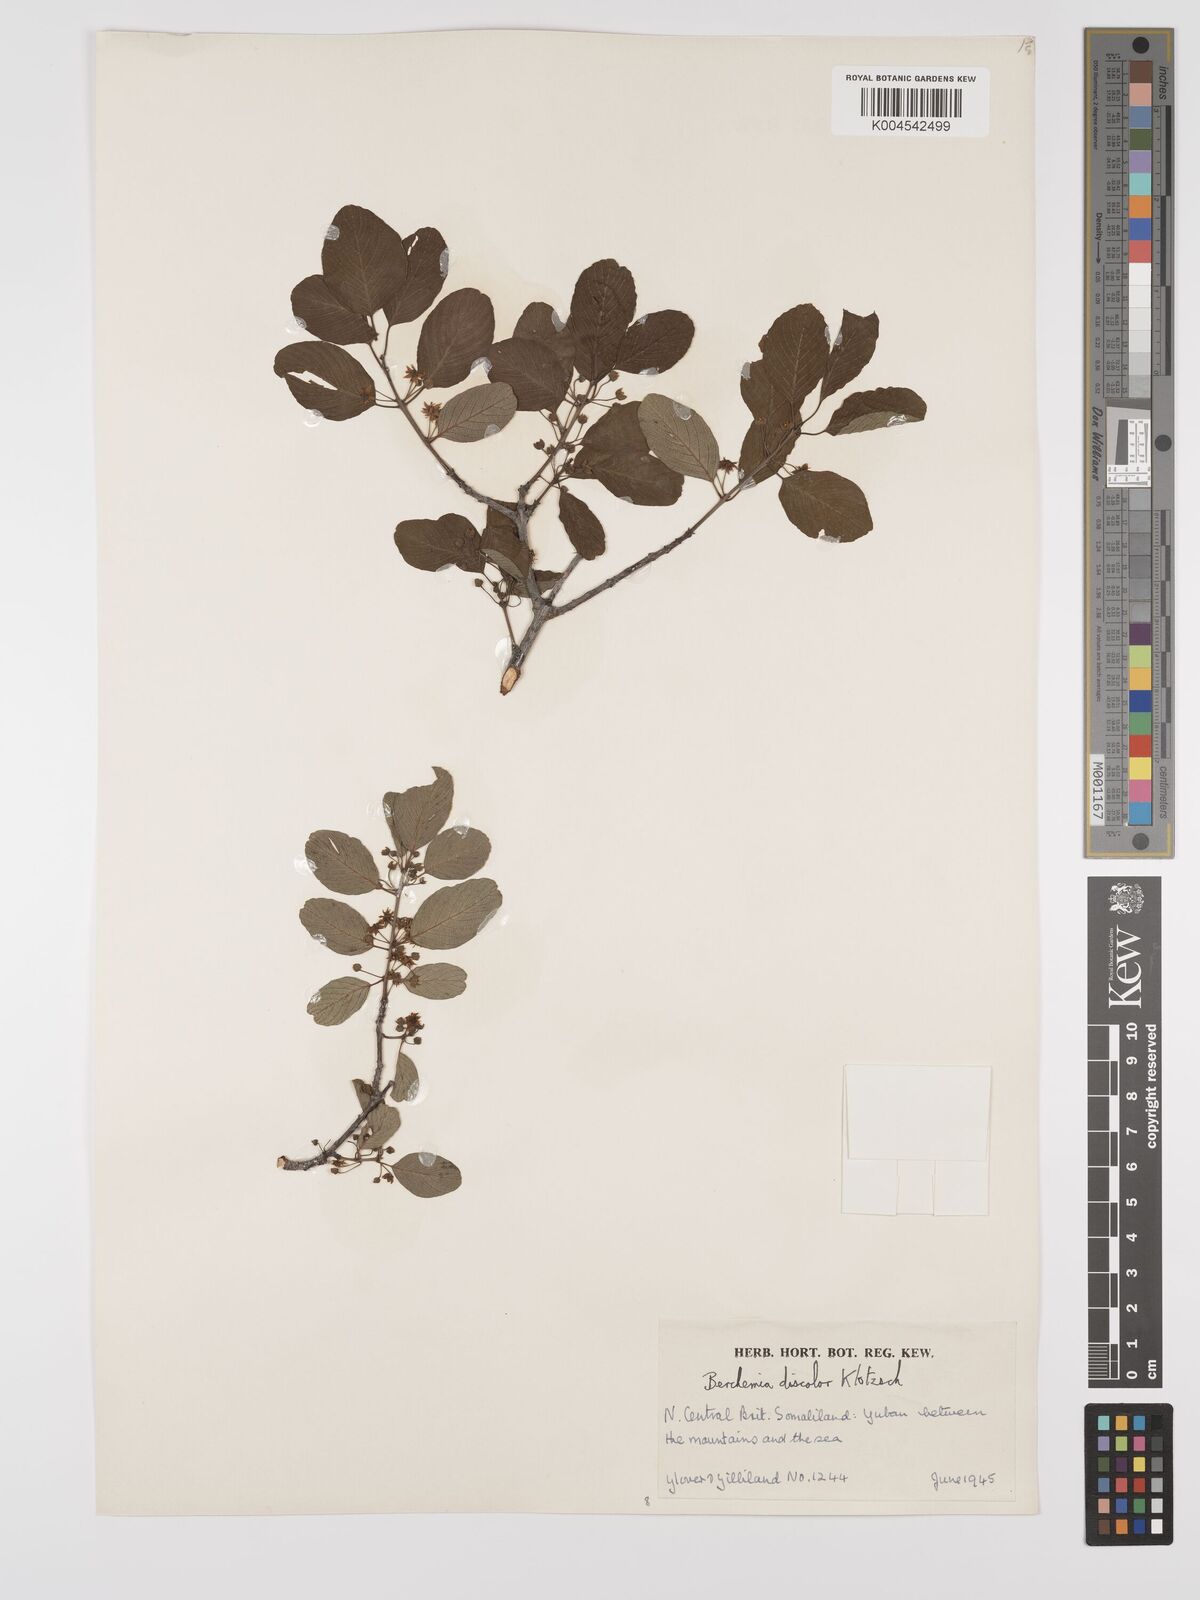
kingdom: Plantae
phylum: Tracheophyta
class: Magnoliopsida
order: Rosales
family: Rhamnaceae
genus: Phyllogeiton
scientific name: Phyllogeiton discolor
